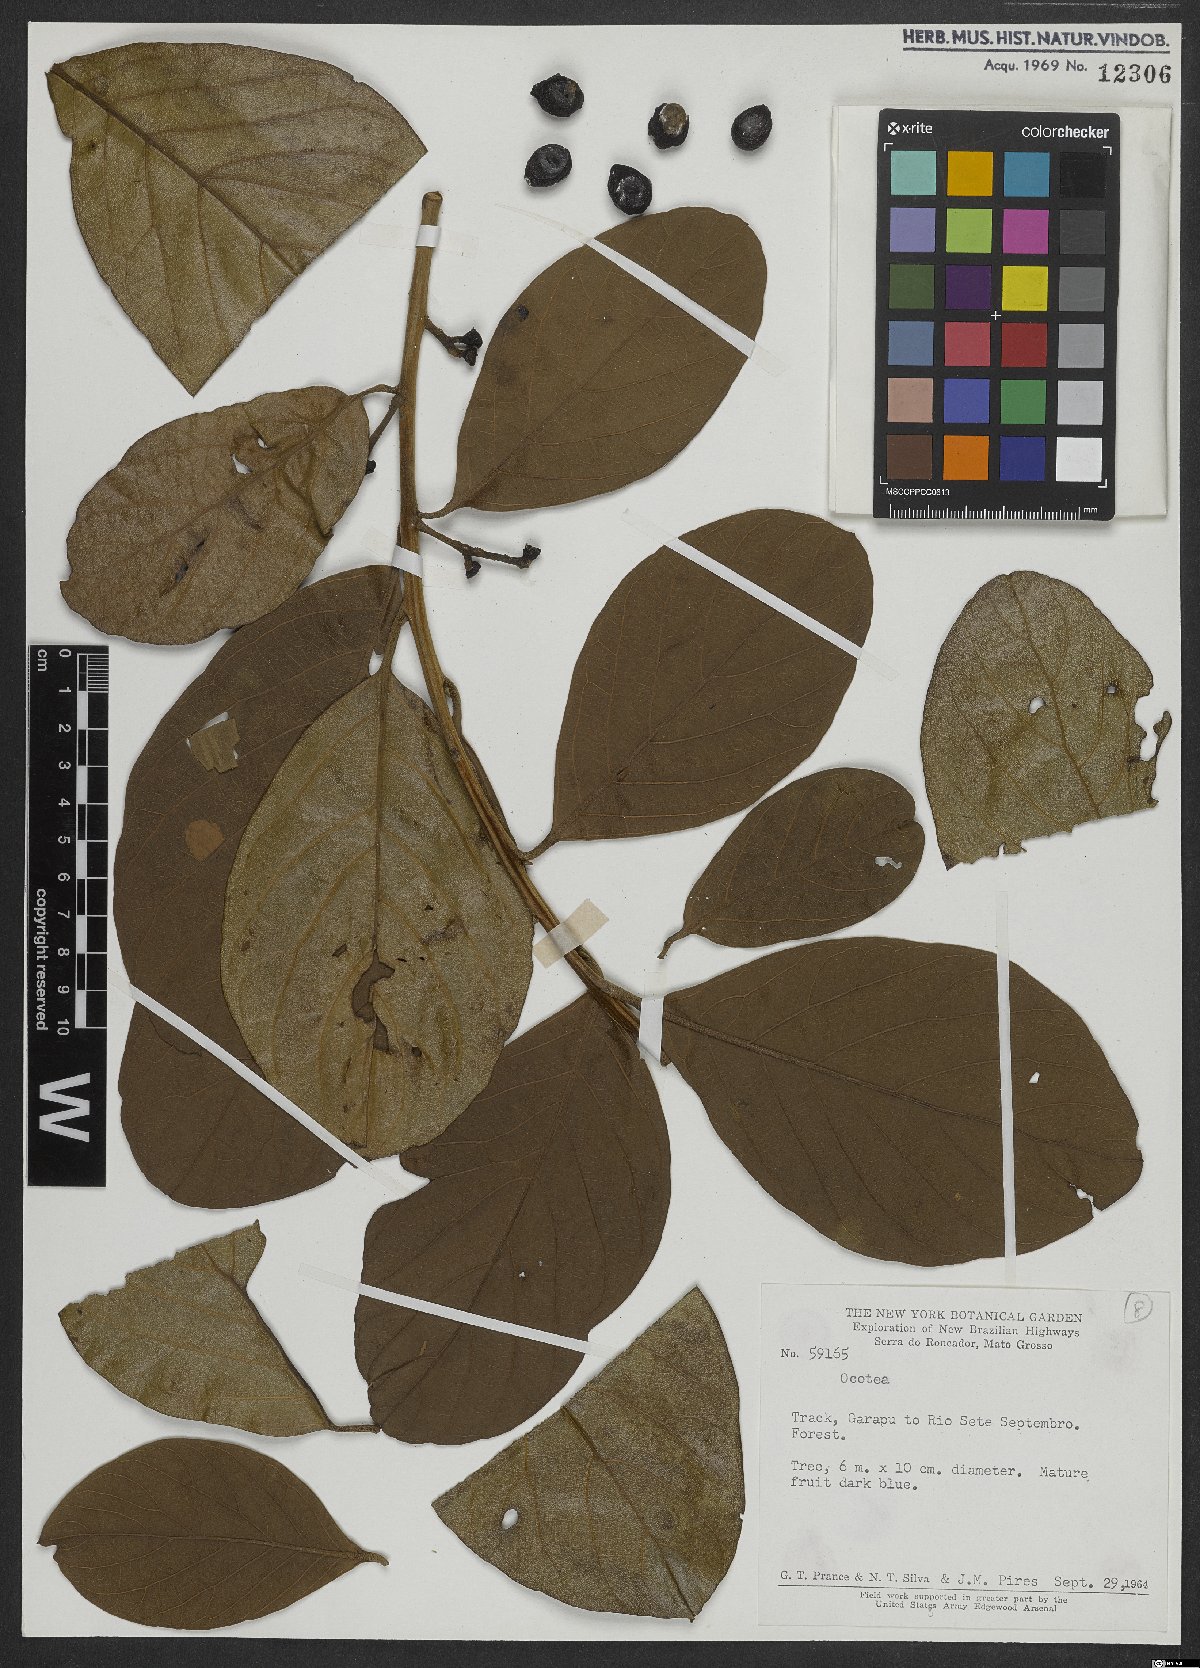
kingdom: Plantae
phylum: Tracheophyta
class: Magnoliopsida
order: Laurales
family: Lauraceae
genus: Ocotea
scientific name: Ocotea
